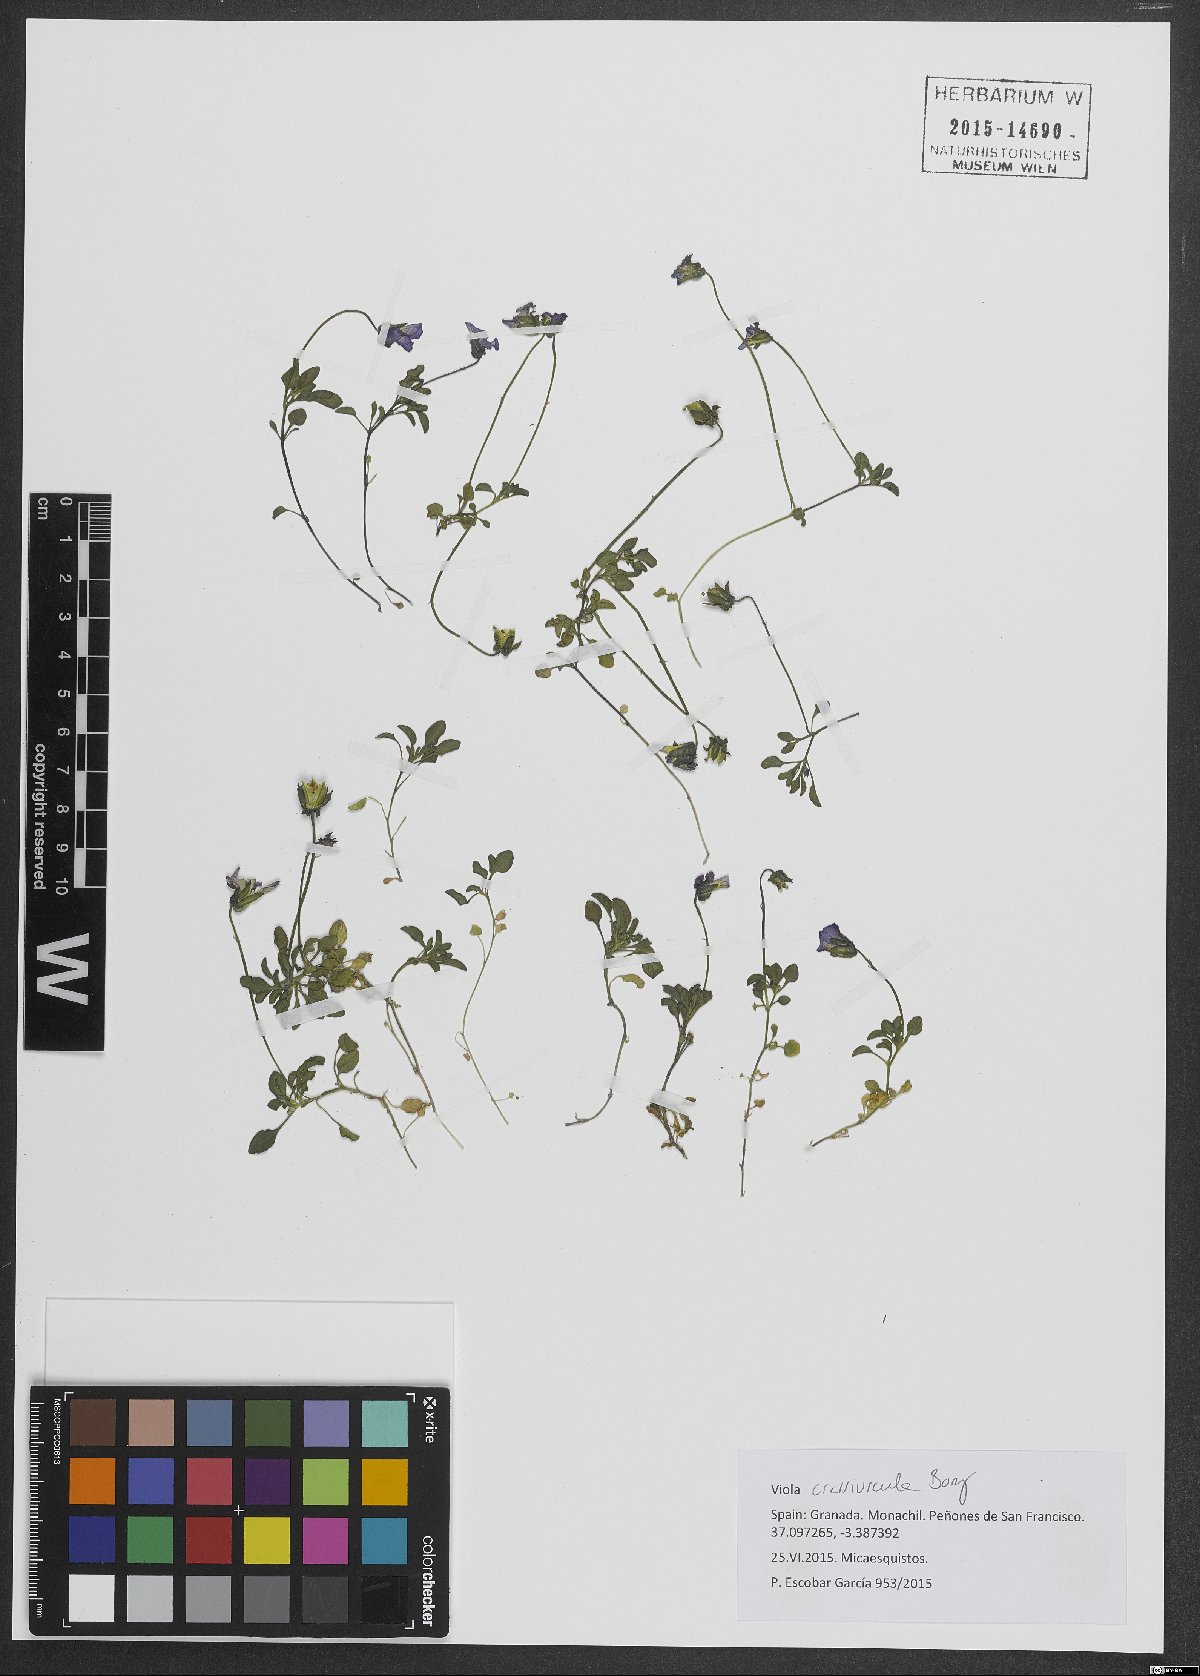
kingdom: Plantae
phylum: Tracheophyta
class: Magnoliopsida
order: Malpighiales
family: Violaceae
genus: Viola
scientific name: Viola crassiuscula
